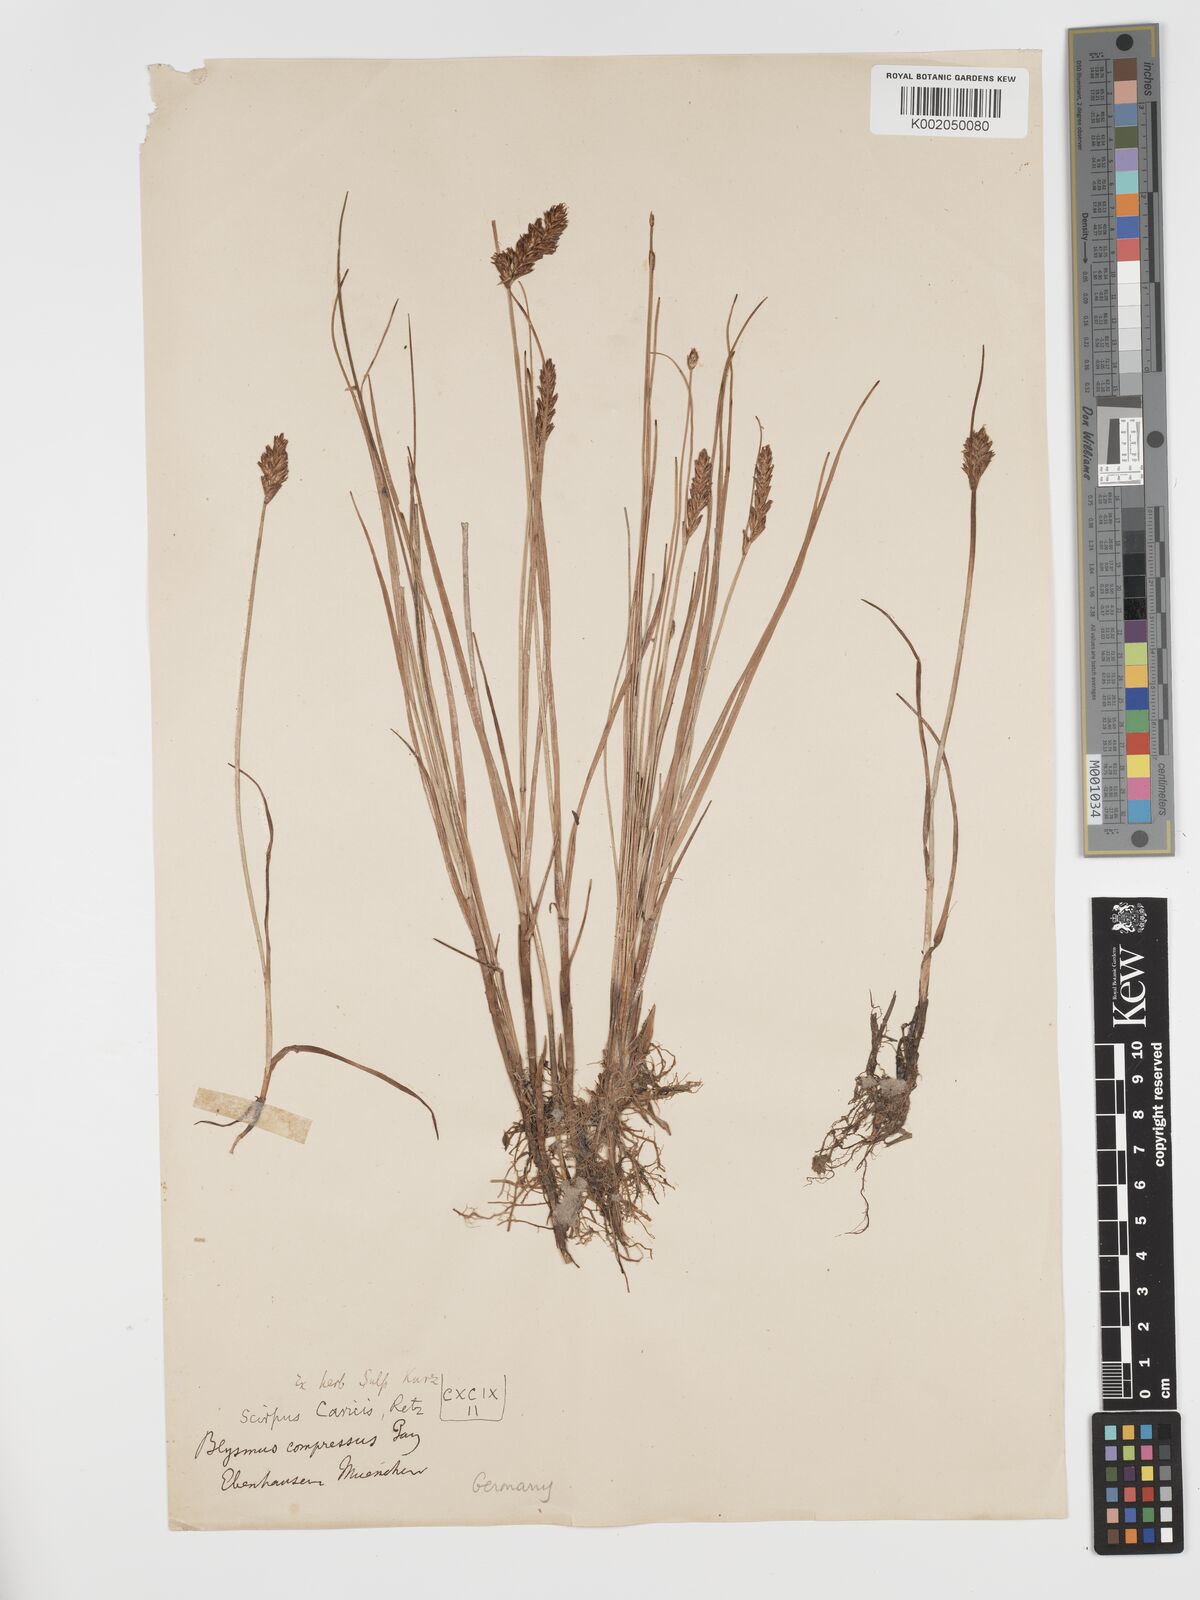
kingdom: Plantae
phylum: Tracheophyta
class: Liliopsida
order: Poales
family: Cyperaceae
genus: Blysmus
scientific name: Blysmus compressus
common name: Flat-sedge
